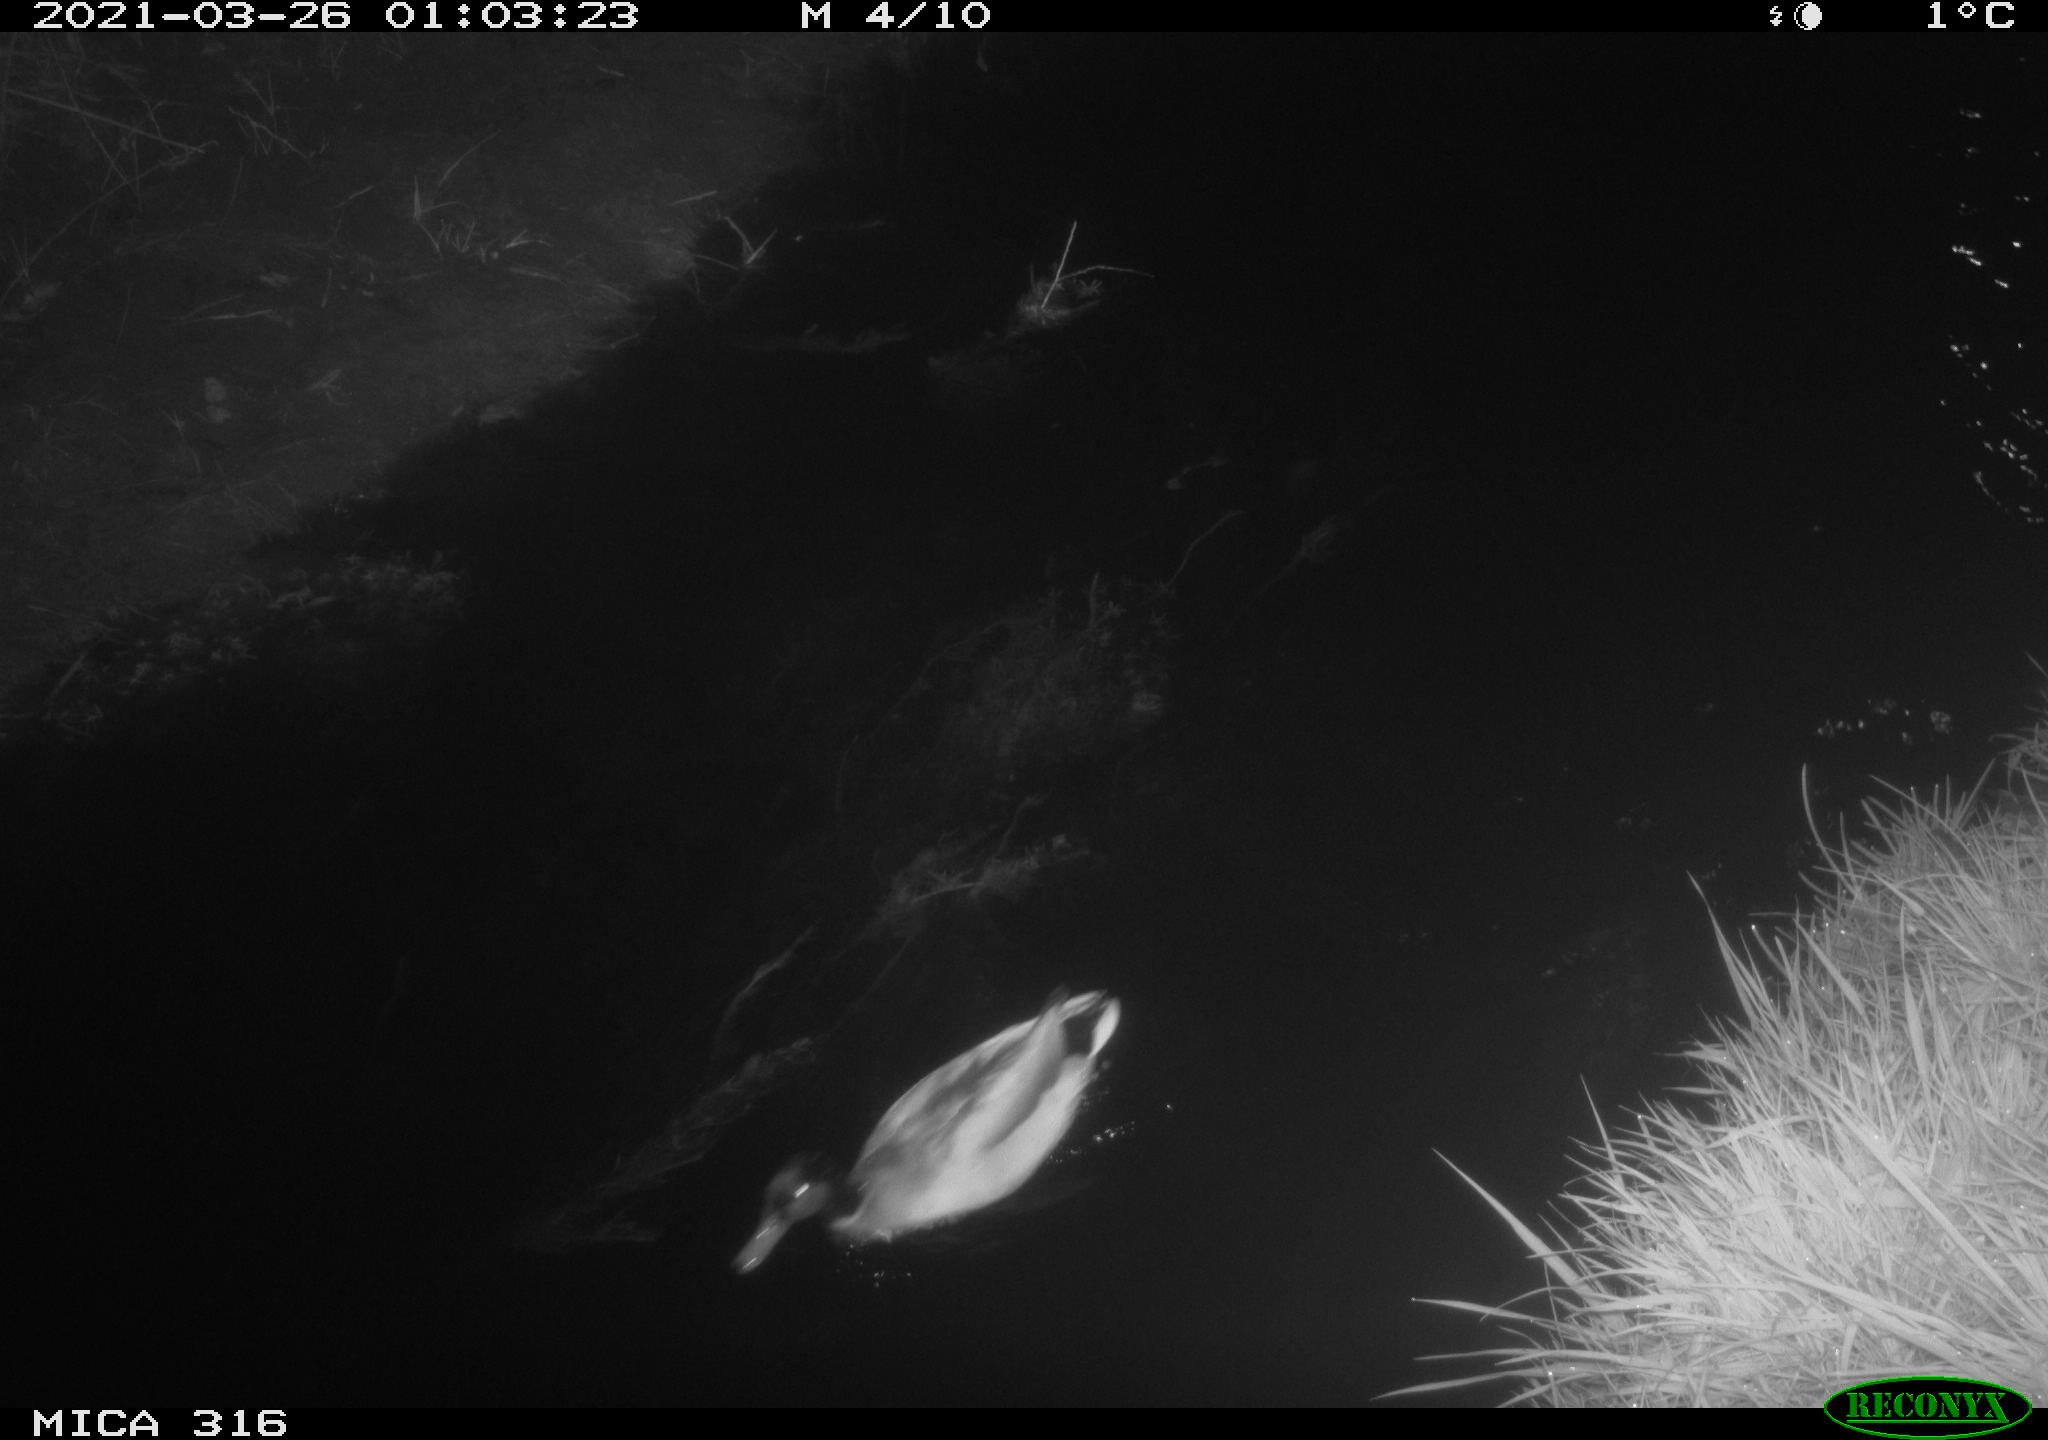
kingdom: Animalia
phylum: Chordata
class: Aves
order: Anseriformes
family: Anatidae
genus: Anas
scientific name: Anas crecca
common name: Eurasian teal
